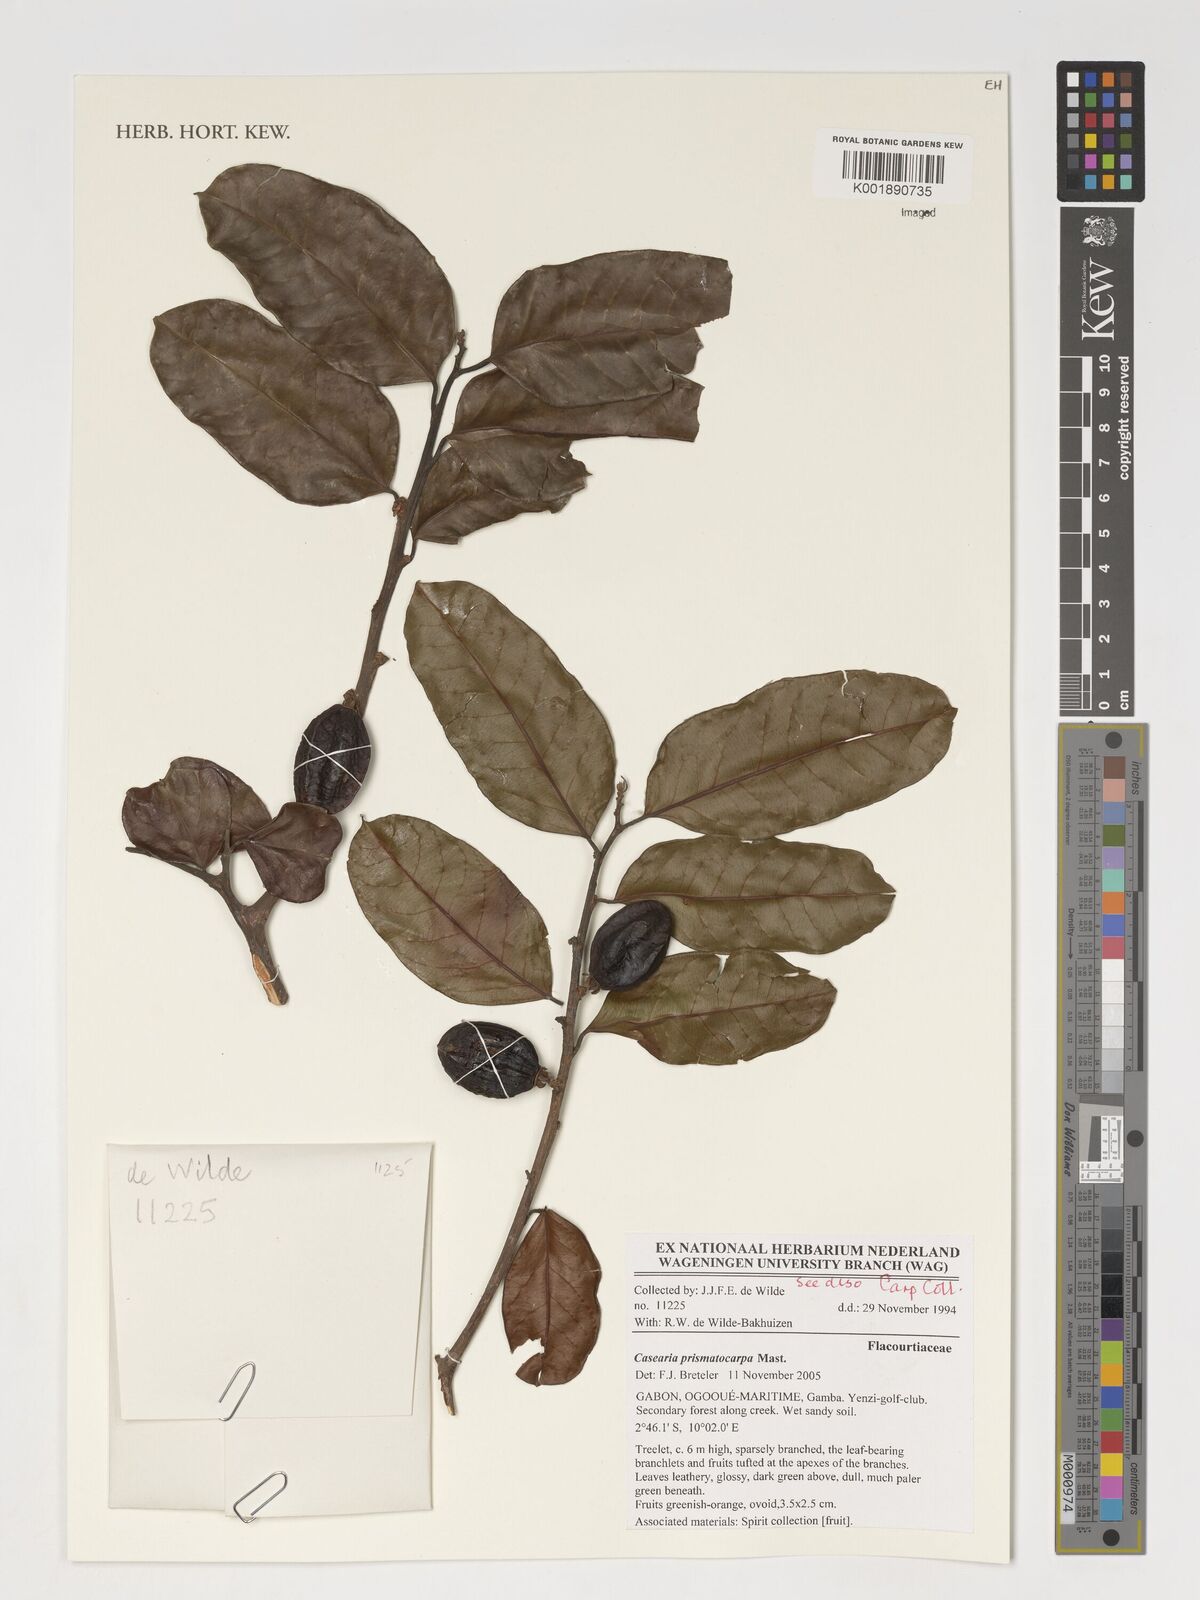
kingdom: Plantae
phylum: Tracheophyta
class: Magnoliopsida
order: Malpighiales
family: Salicaceae
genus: Casearia
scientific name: Casearia barteri
